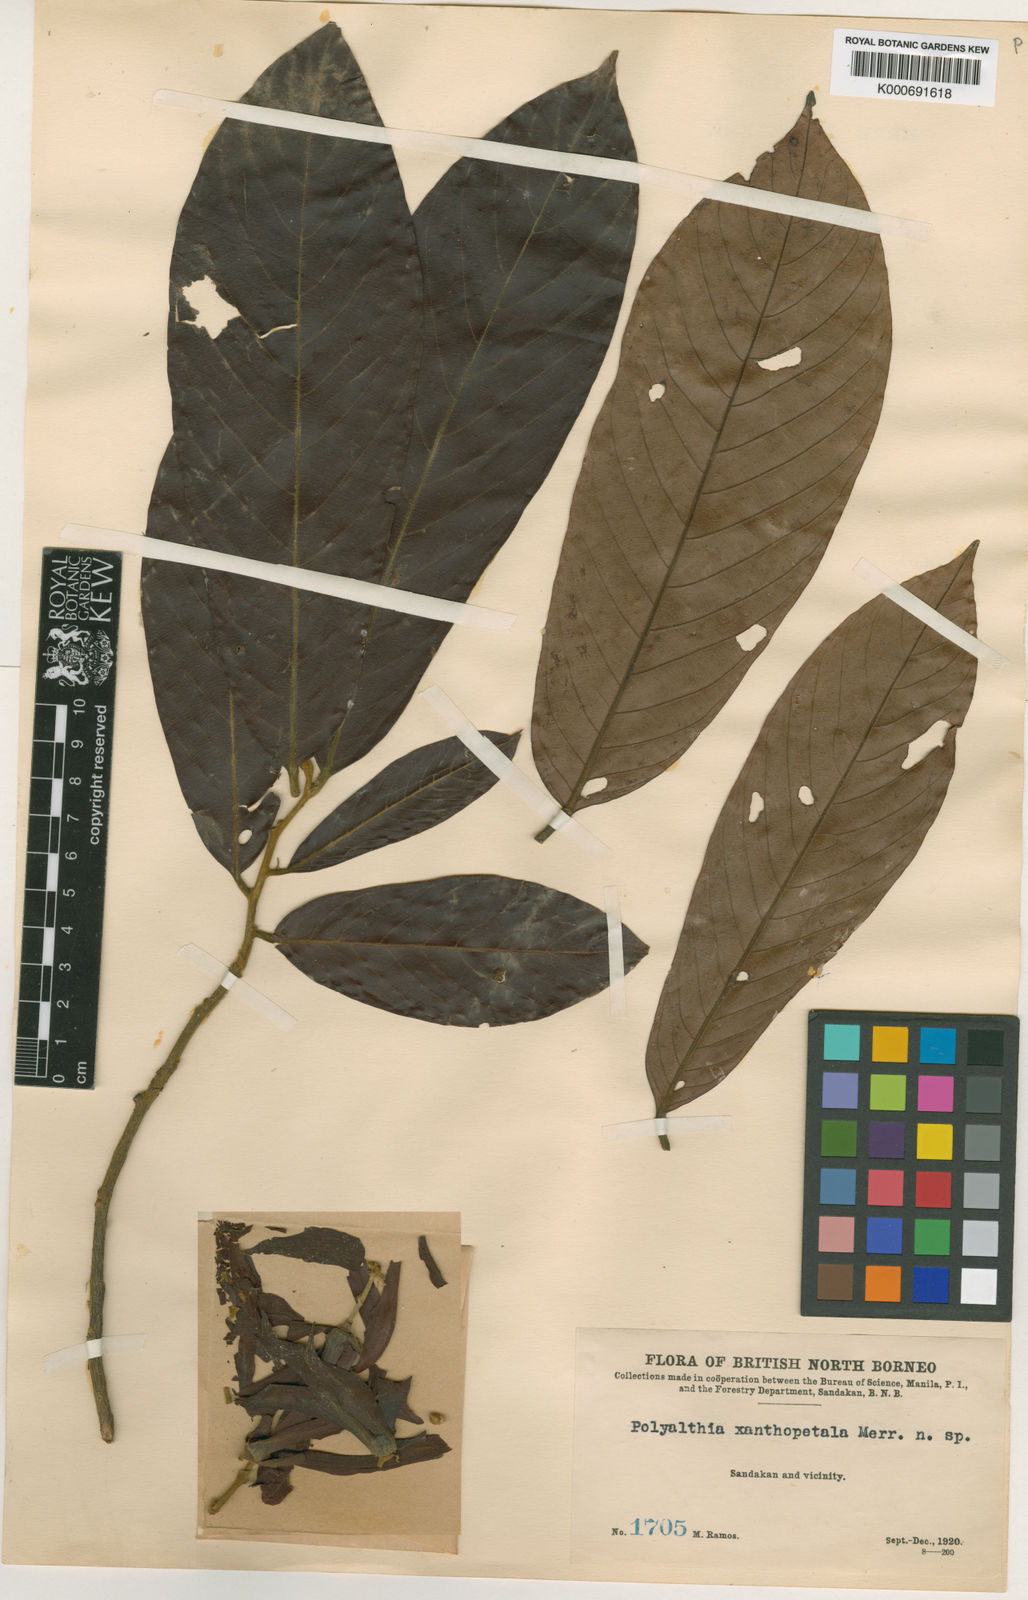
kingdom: Plantae
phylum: Tracheophyta
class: Magnoliopsida
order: Magnoliales
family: Annonaceae
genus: Anaxagorea
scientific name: Anaxagorea javanica
